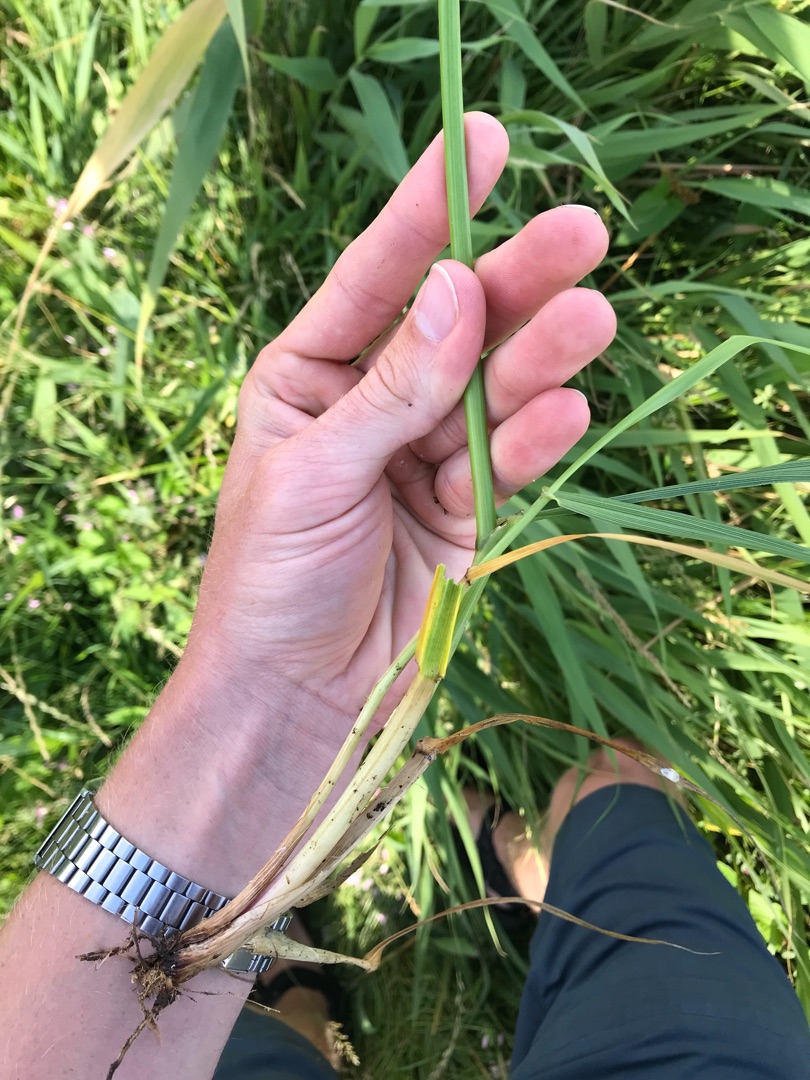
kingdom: Plantae
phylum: Tracheophyta
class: Liliopsida
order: Poales
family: Poaceae
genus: Lolium
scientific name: Lolium arundinaceum
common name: Strand-svingel
